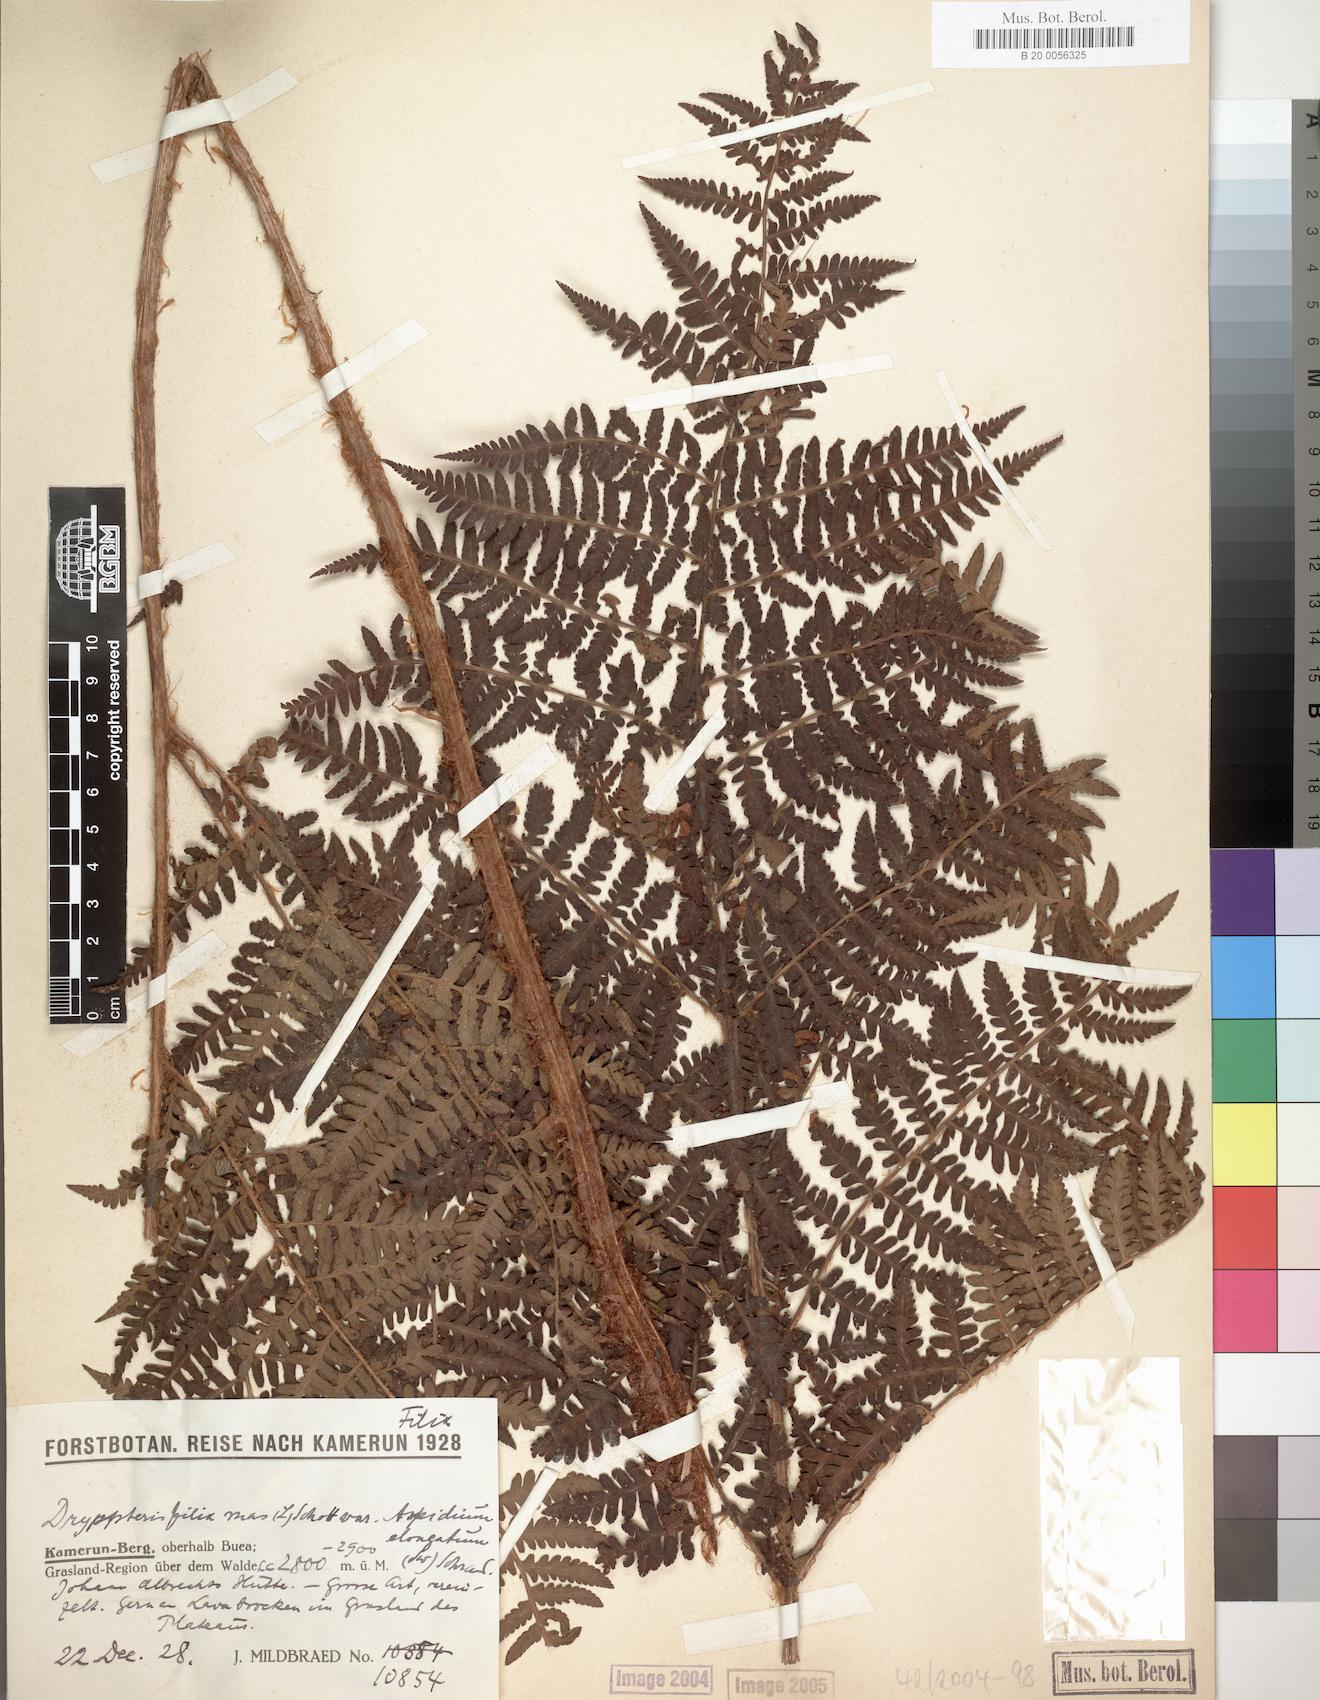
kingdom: Plantae
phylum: Tracheophyta
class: Polypodiopsida
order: Polypodiales
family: Dryopteridaceae
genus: Dryopteris
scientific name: Dryopteris filix-mas
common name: Male fern
